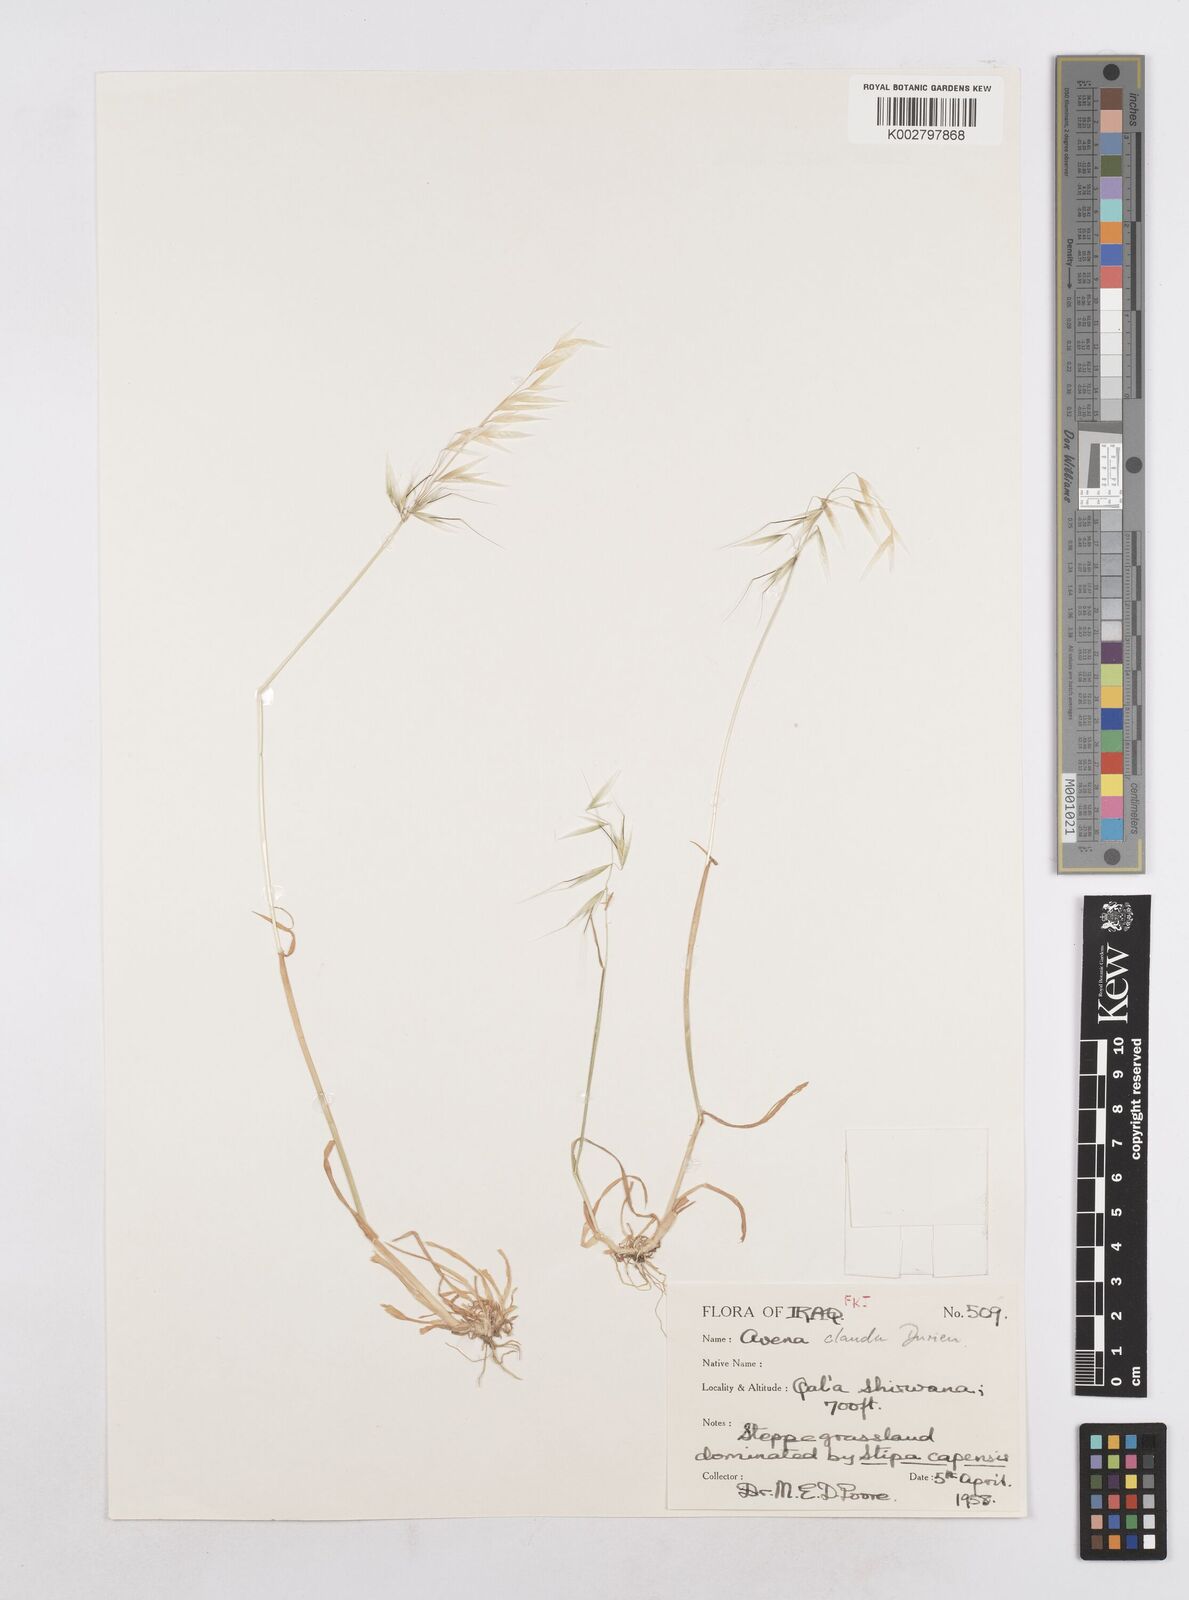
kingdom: Plantae
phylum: Tracheophyta
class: Liliopsida
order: Poales
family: Poaceae
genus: Avena
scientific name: Avena clauda
